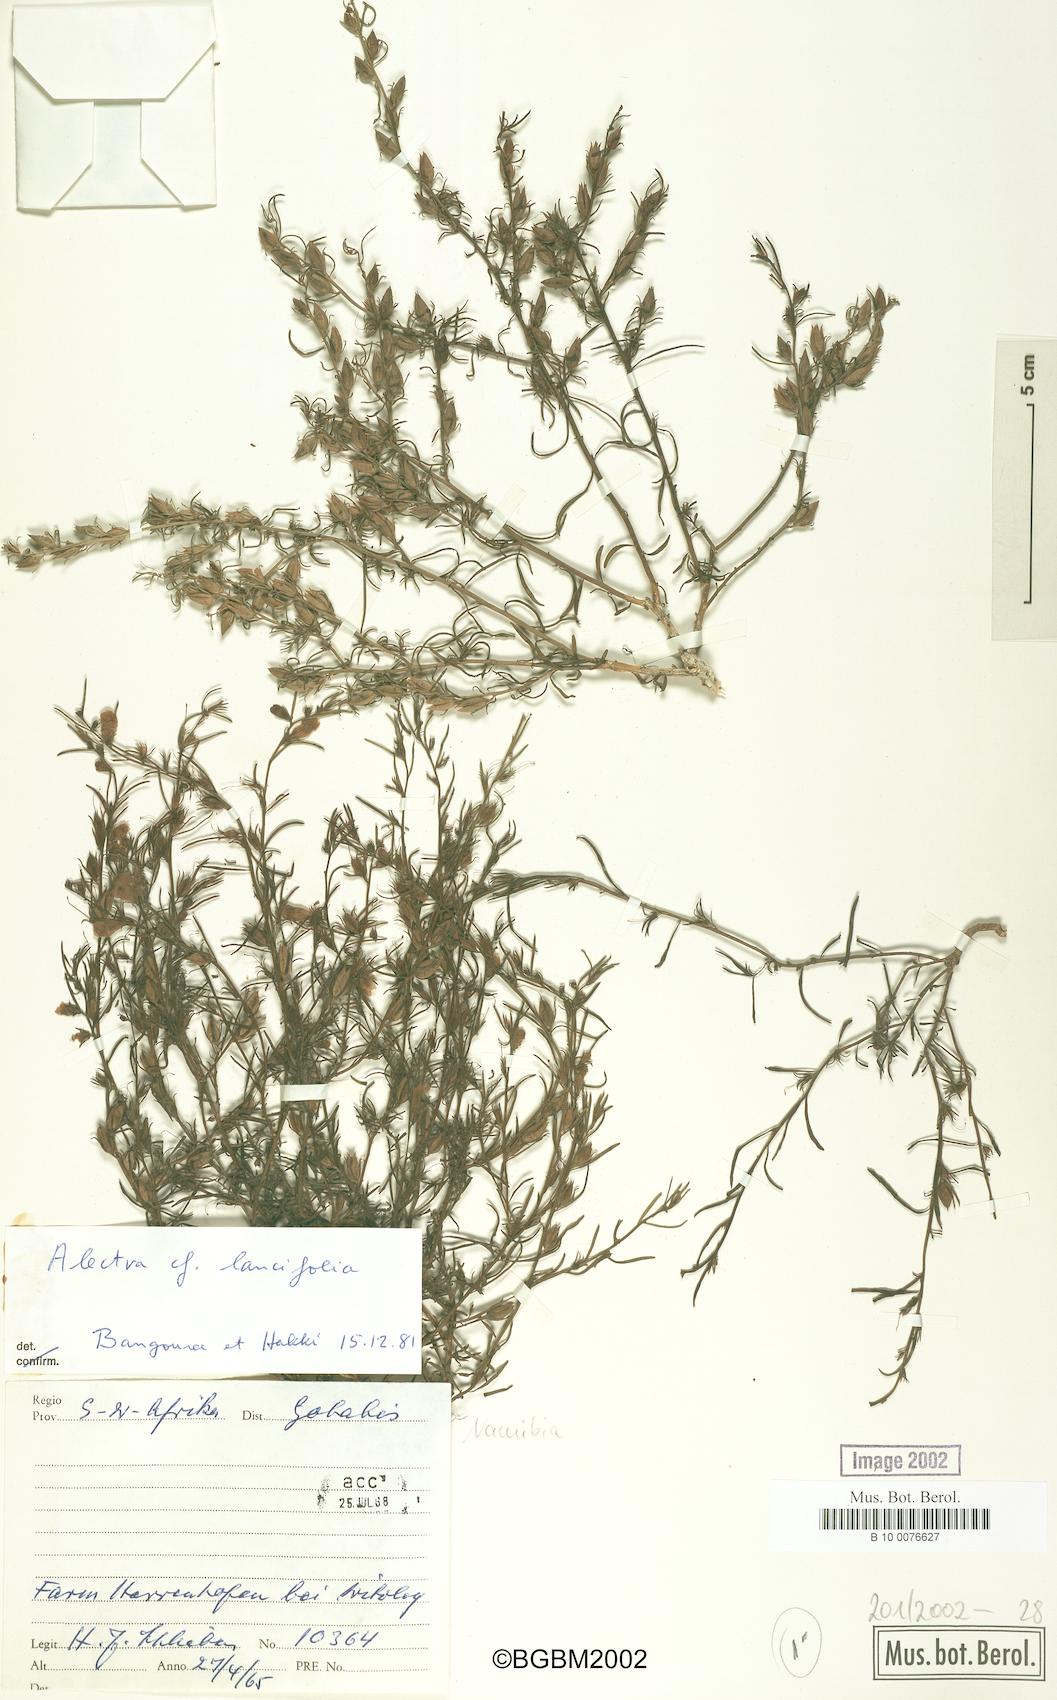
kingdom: Plantae
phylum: Tracheophyta
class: Magnoliopsida
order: Lamiales
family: Orobanchaceae
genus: Alectra
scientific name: Alectra lancifolia
